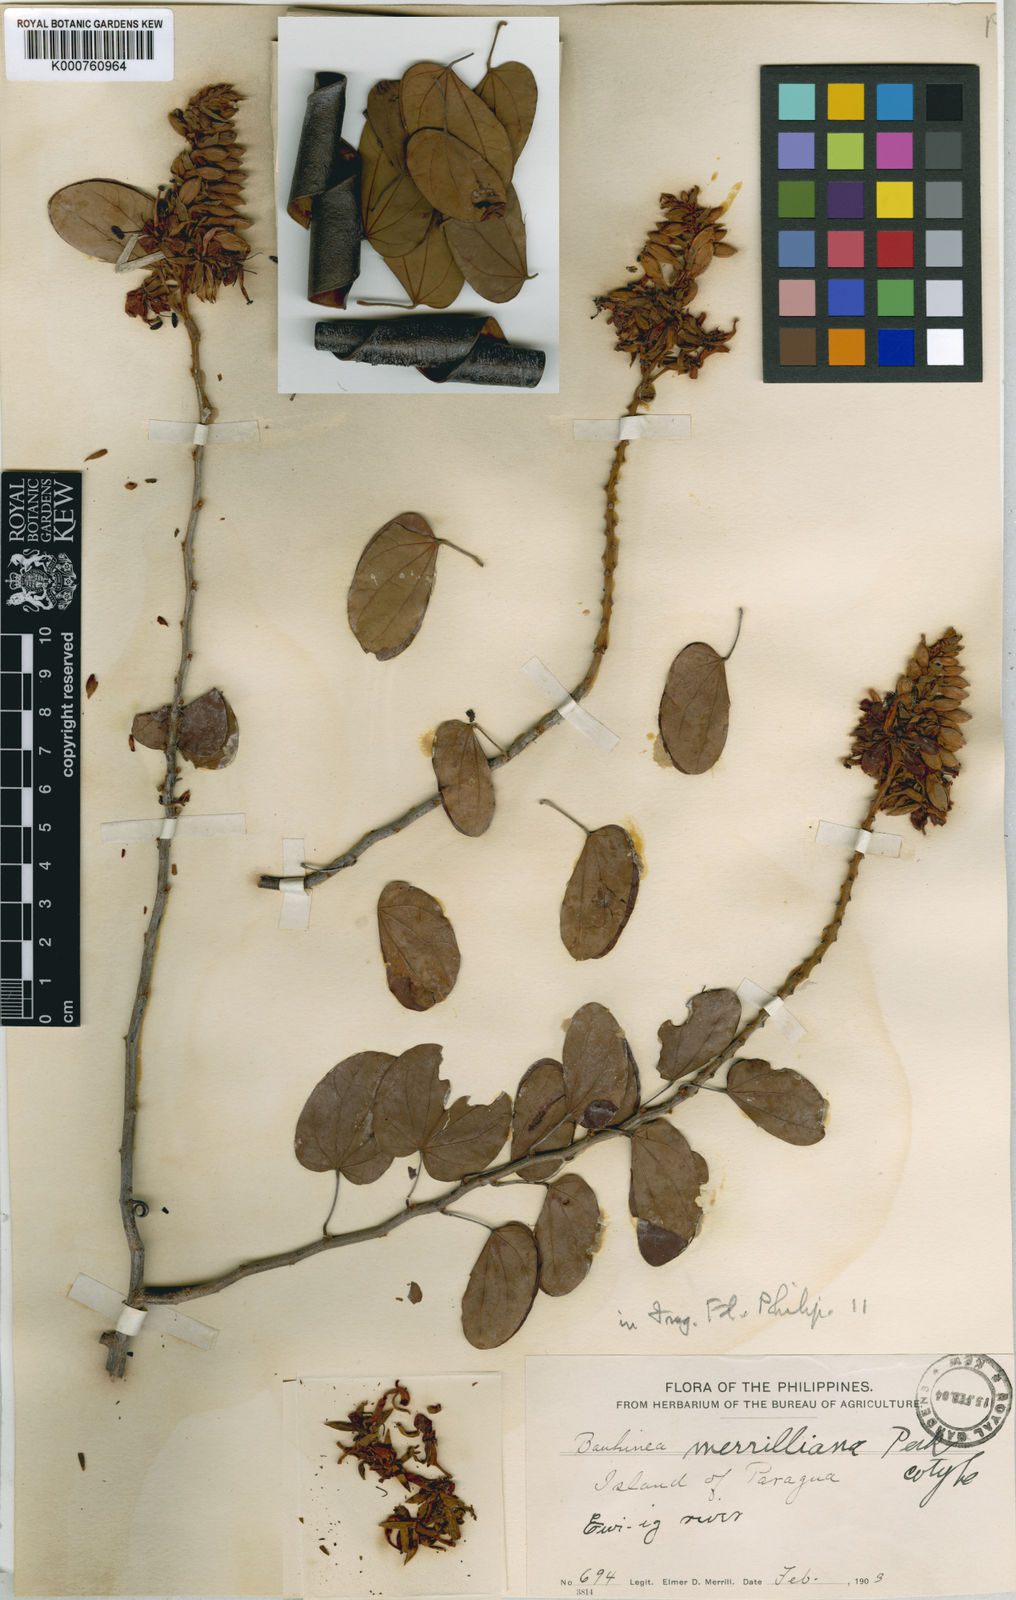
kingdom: Plantae
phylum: Tracheophyta
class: Magnoliopsida
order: Fabales
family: Fabaceae
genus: Phanera
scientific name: Phanera merrilliana
